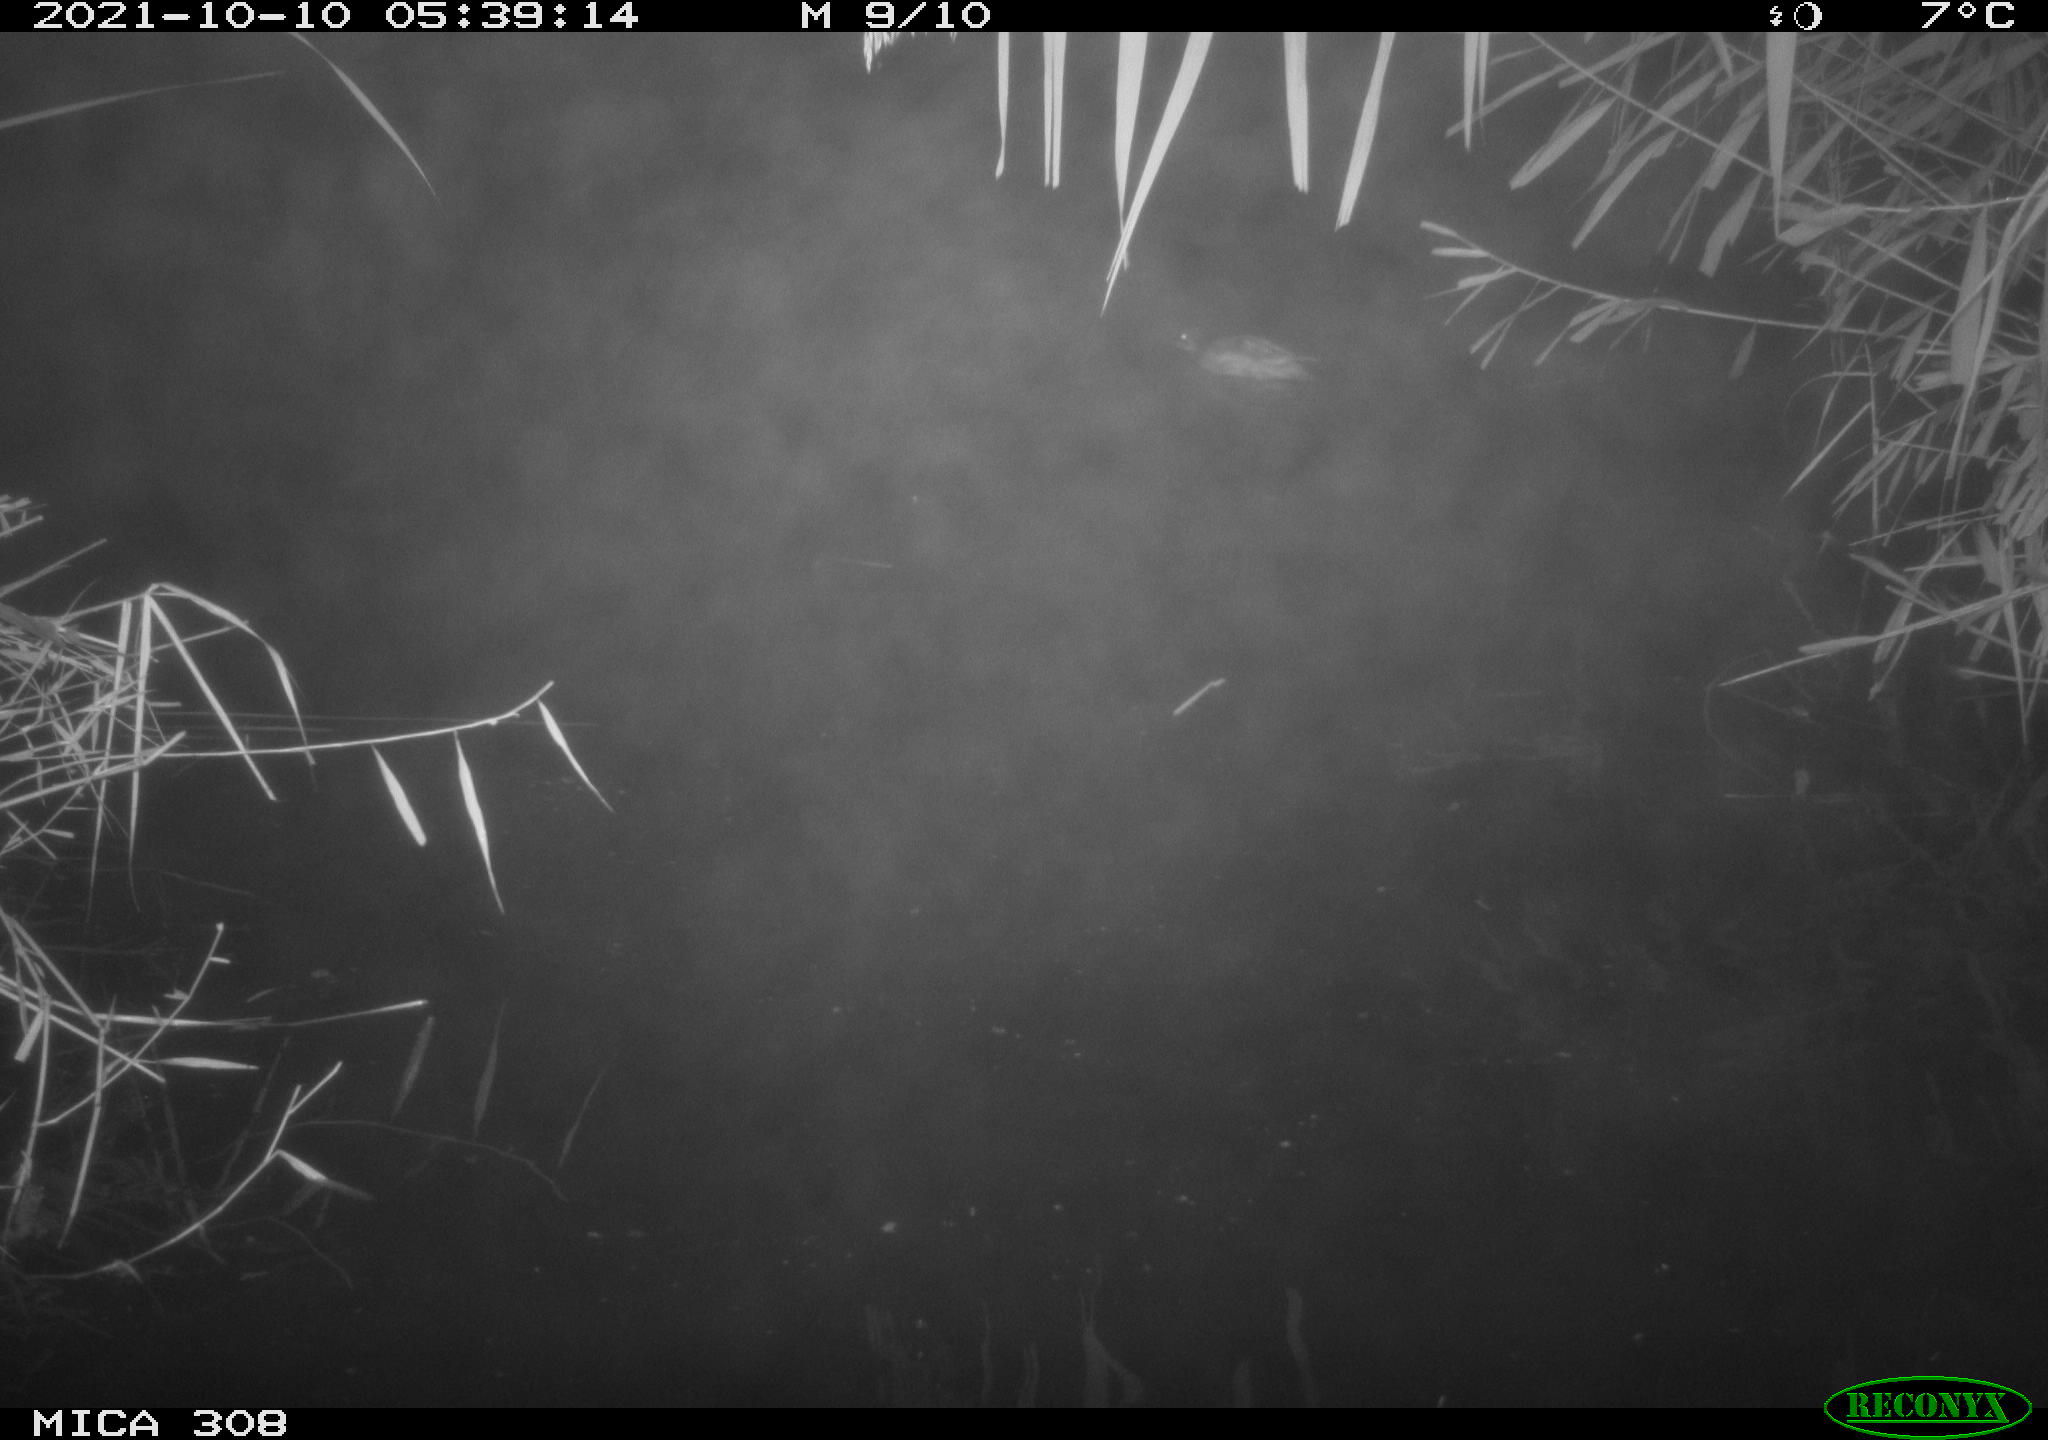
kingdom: Animalia
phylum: Chordata
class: Aves
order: Anseriformes
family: Anatidae
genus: Spatula
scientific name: Spatula clypeata
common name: Northern shoveler
